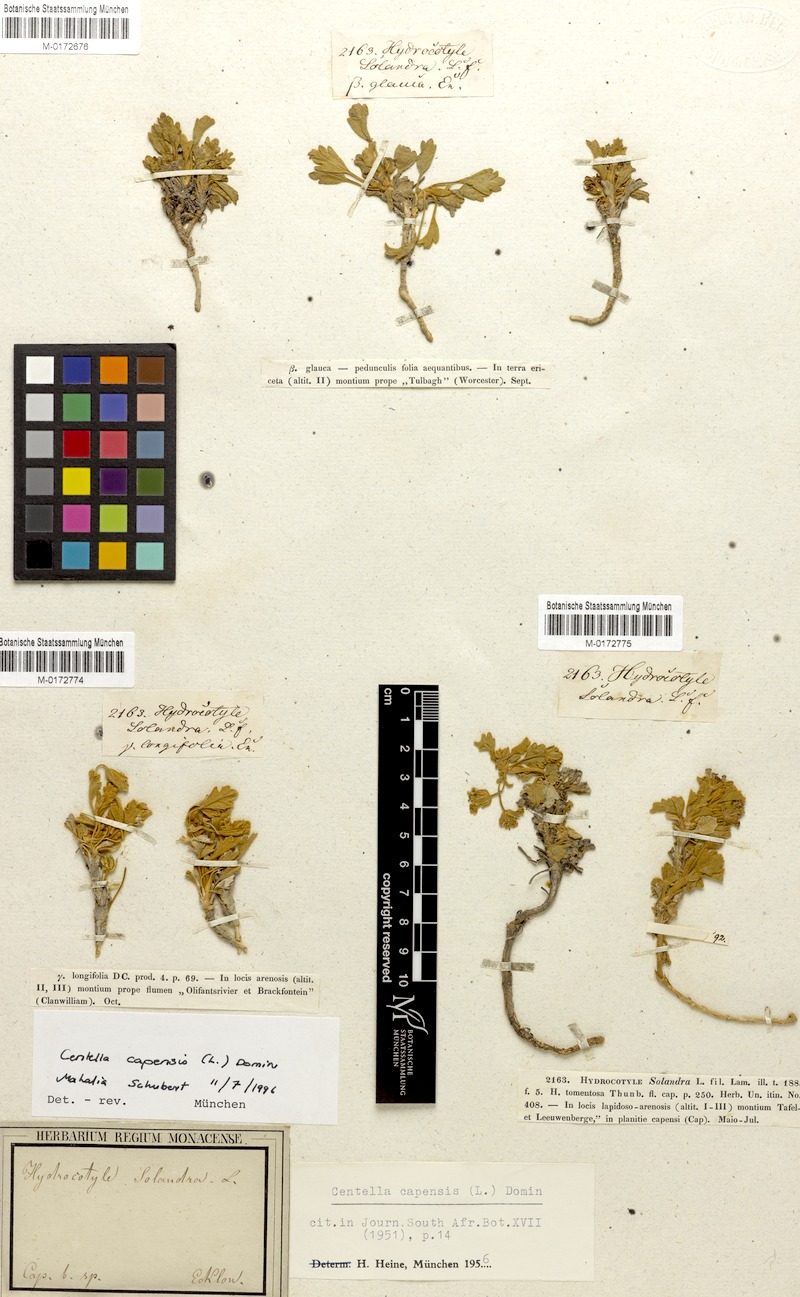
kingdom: Plantae
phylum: Tracheophyta
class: Magnoliopsida
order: Apiales
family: Apiaceae
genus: Centella
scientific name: Centella capensis
